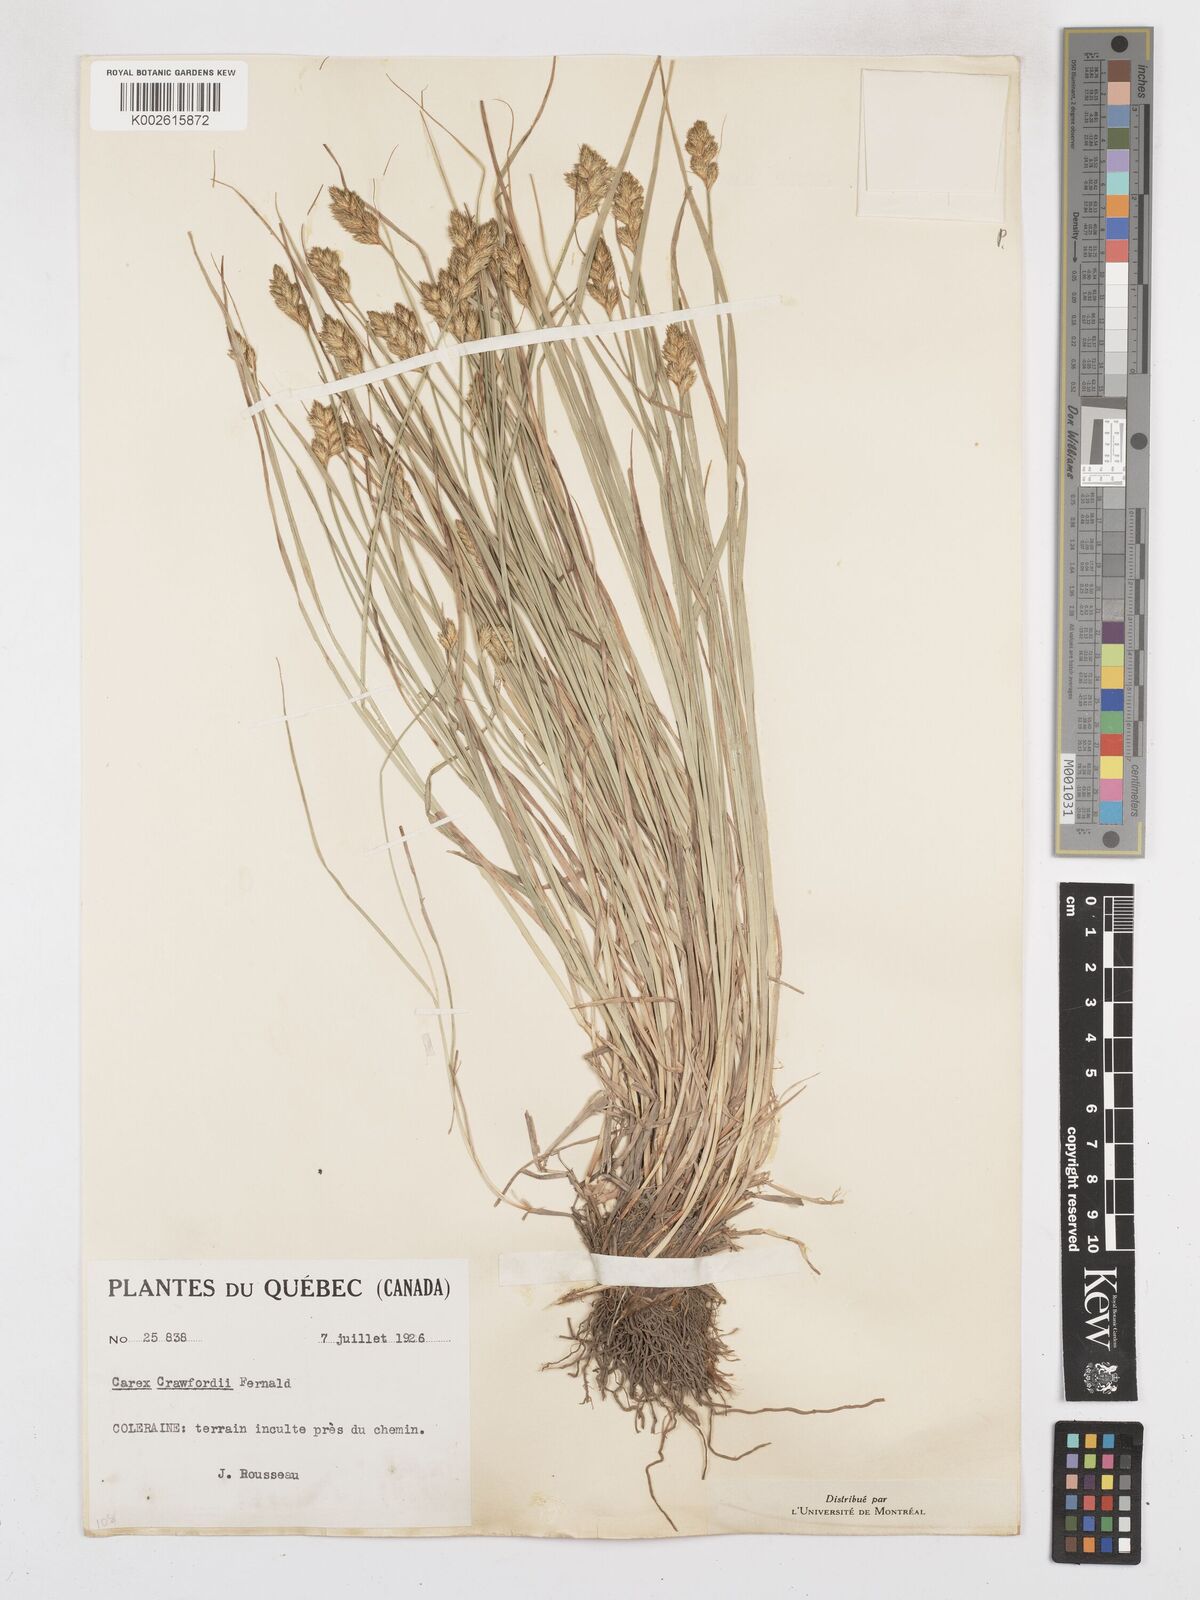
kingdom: Plantae
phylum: Tracheophyta
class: Liliopsida
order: Poales
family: Cyperaceae
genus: Carex
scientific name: Carex crawfordii
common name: Crawford's sedge
